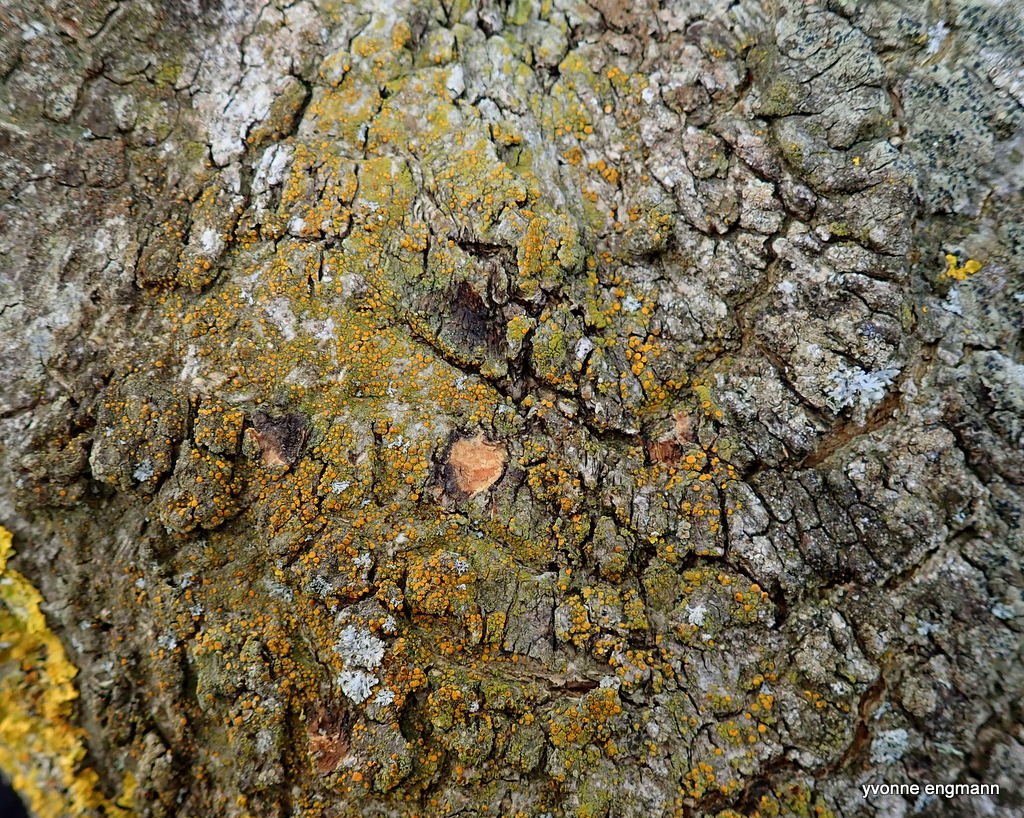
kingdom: Fungi
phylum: Ascomycota
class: Candelariomycetes
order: Candelariales
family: Candelariaceae
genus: Candelariella
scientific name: Candelariella vitellina
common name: almindelig æggeblommelav
